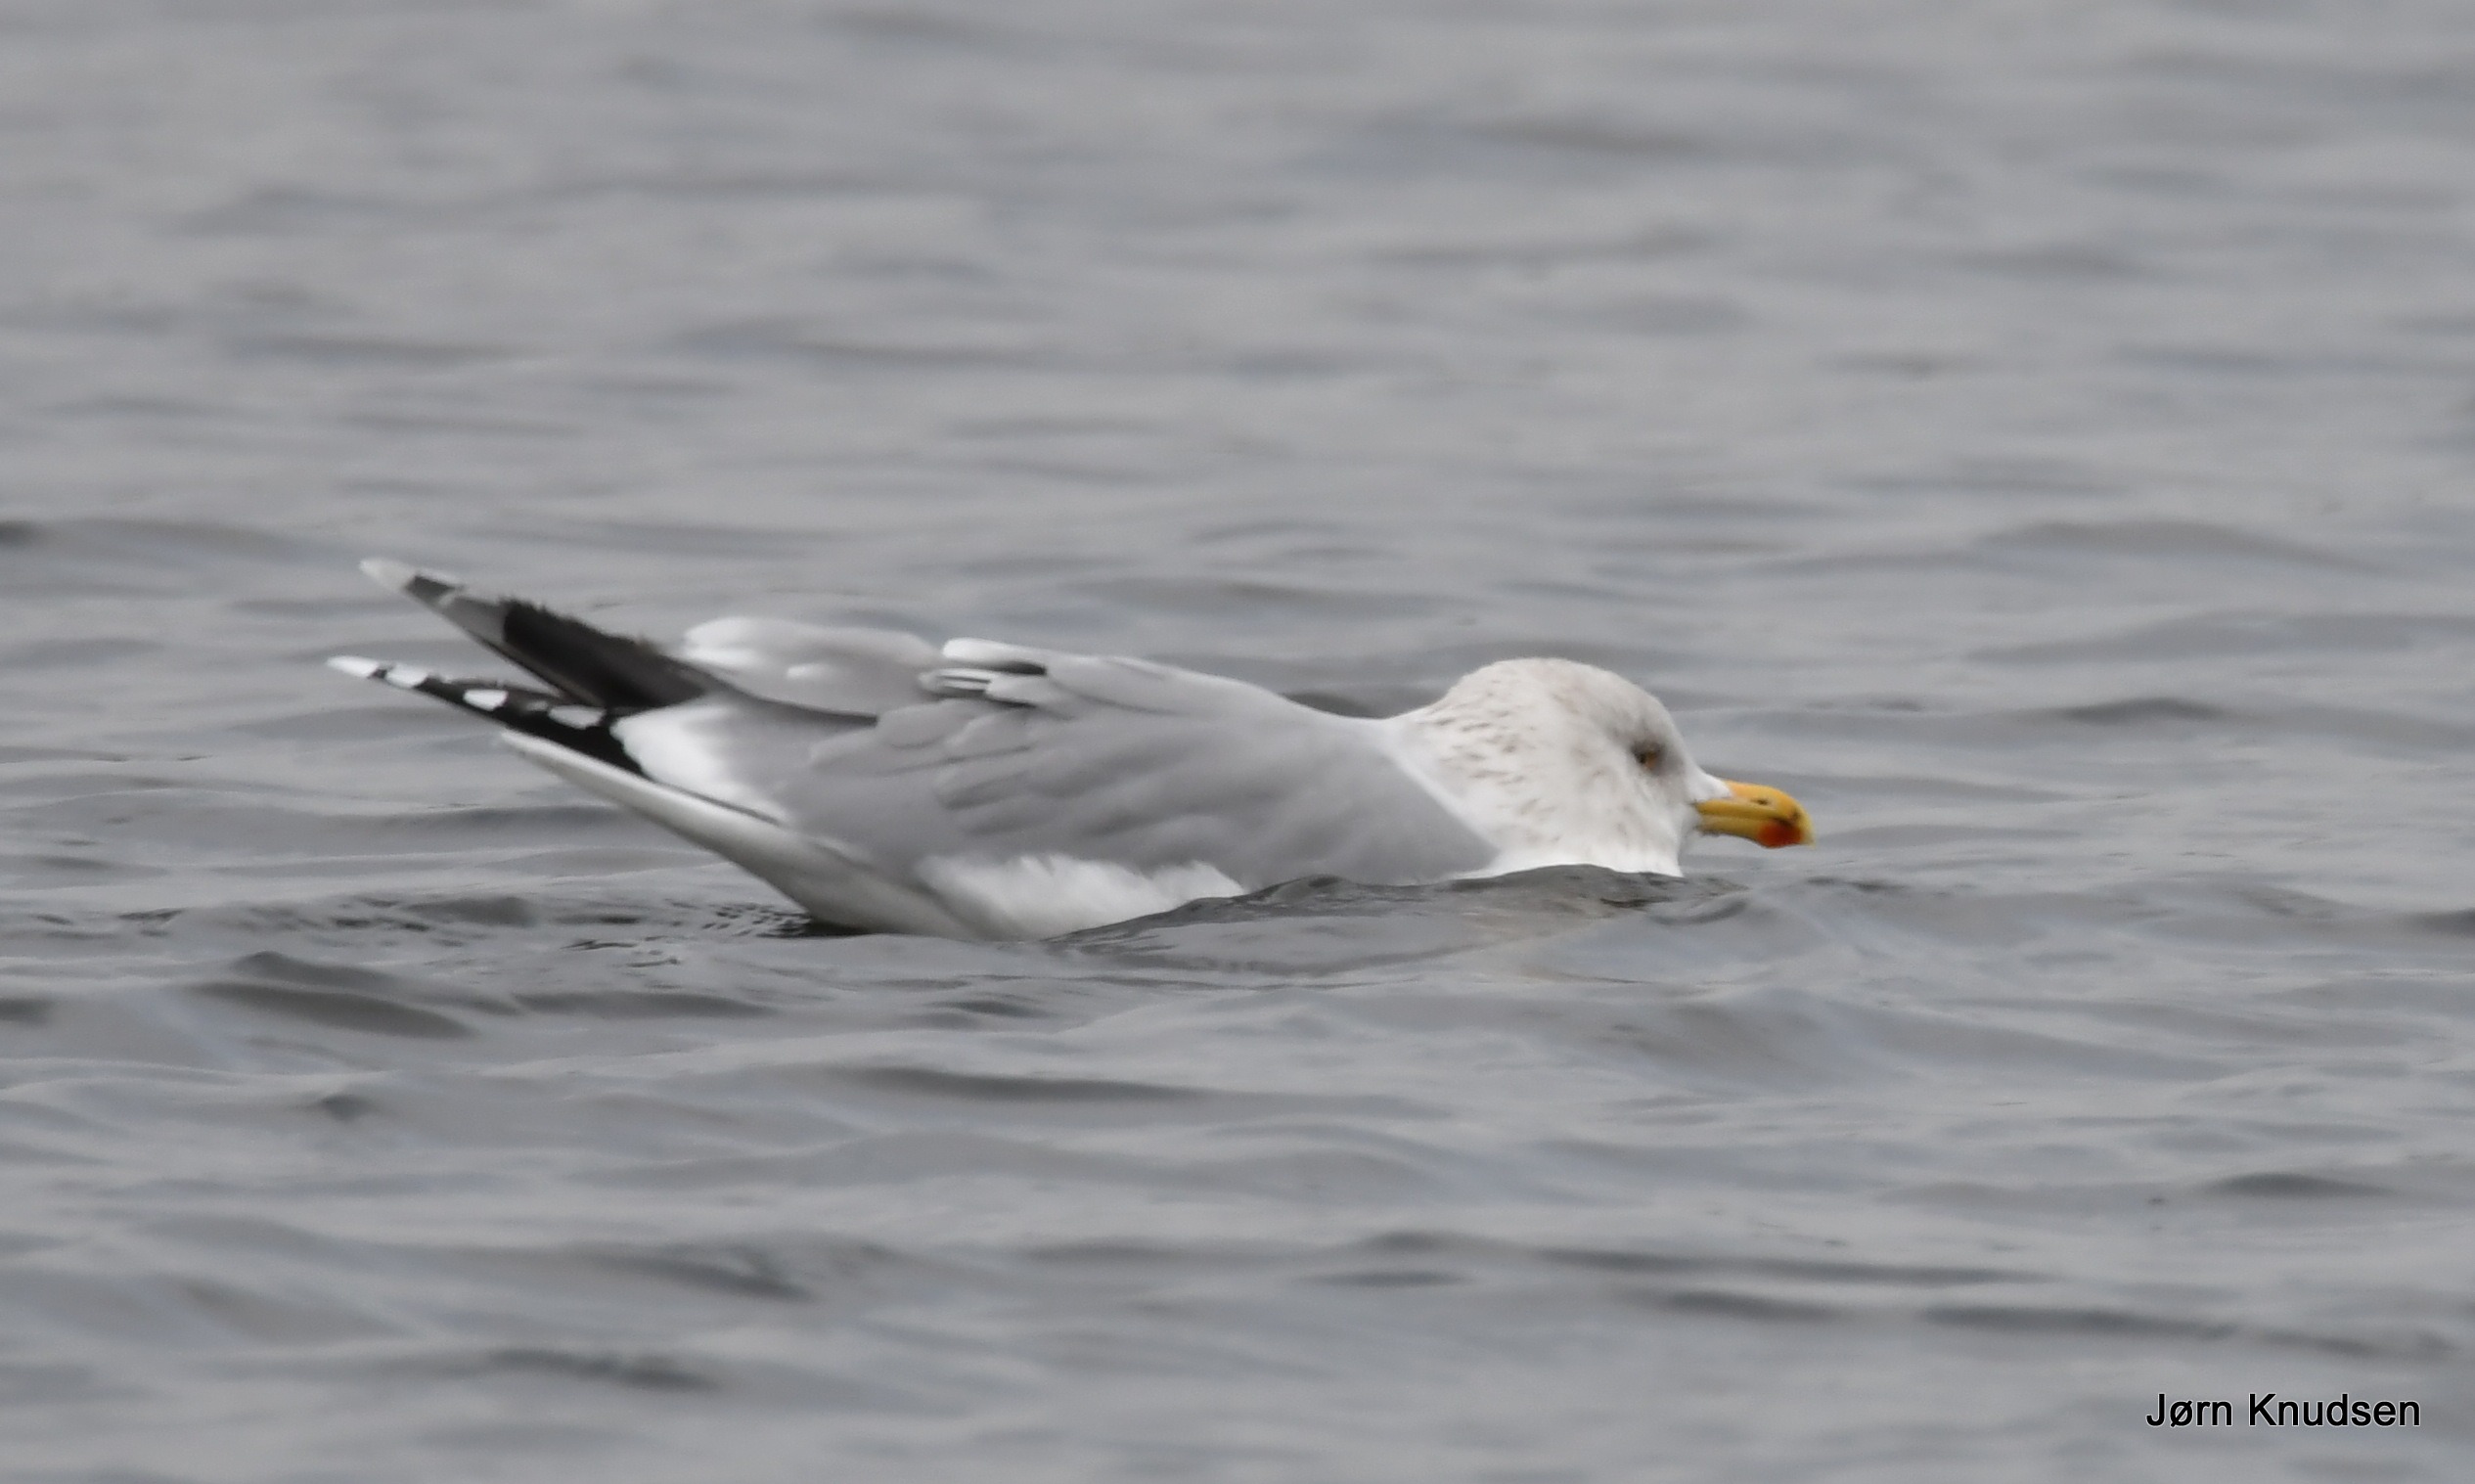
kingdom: Animalia
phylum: Chordata
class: Aves
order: Charadriiformes
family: Laridae
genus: Larus
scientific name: Larus argentatus
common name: Sølvmåge
